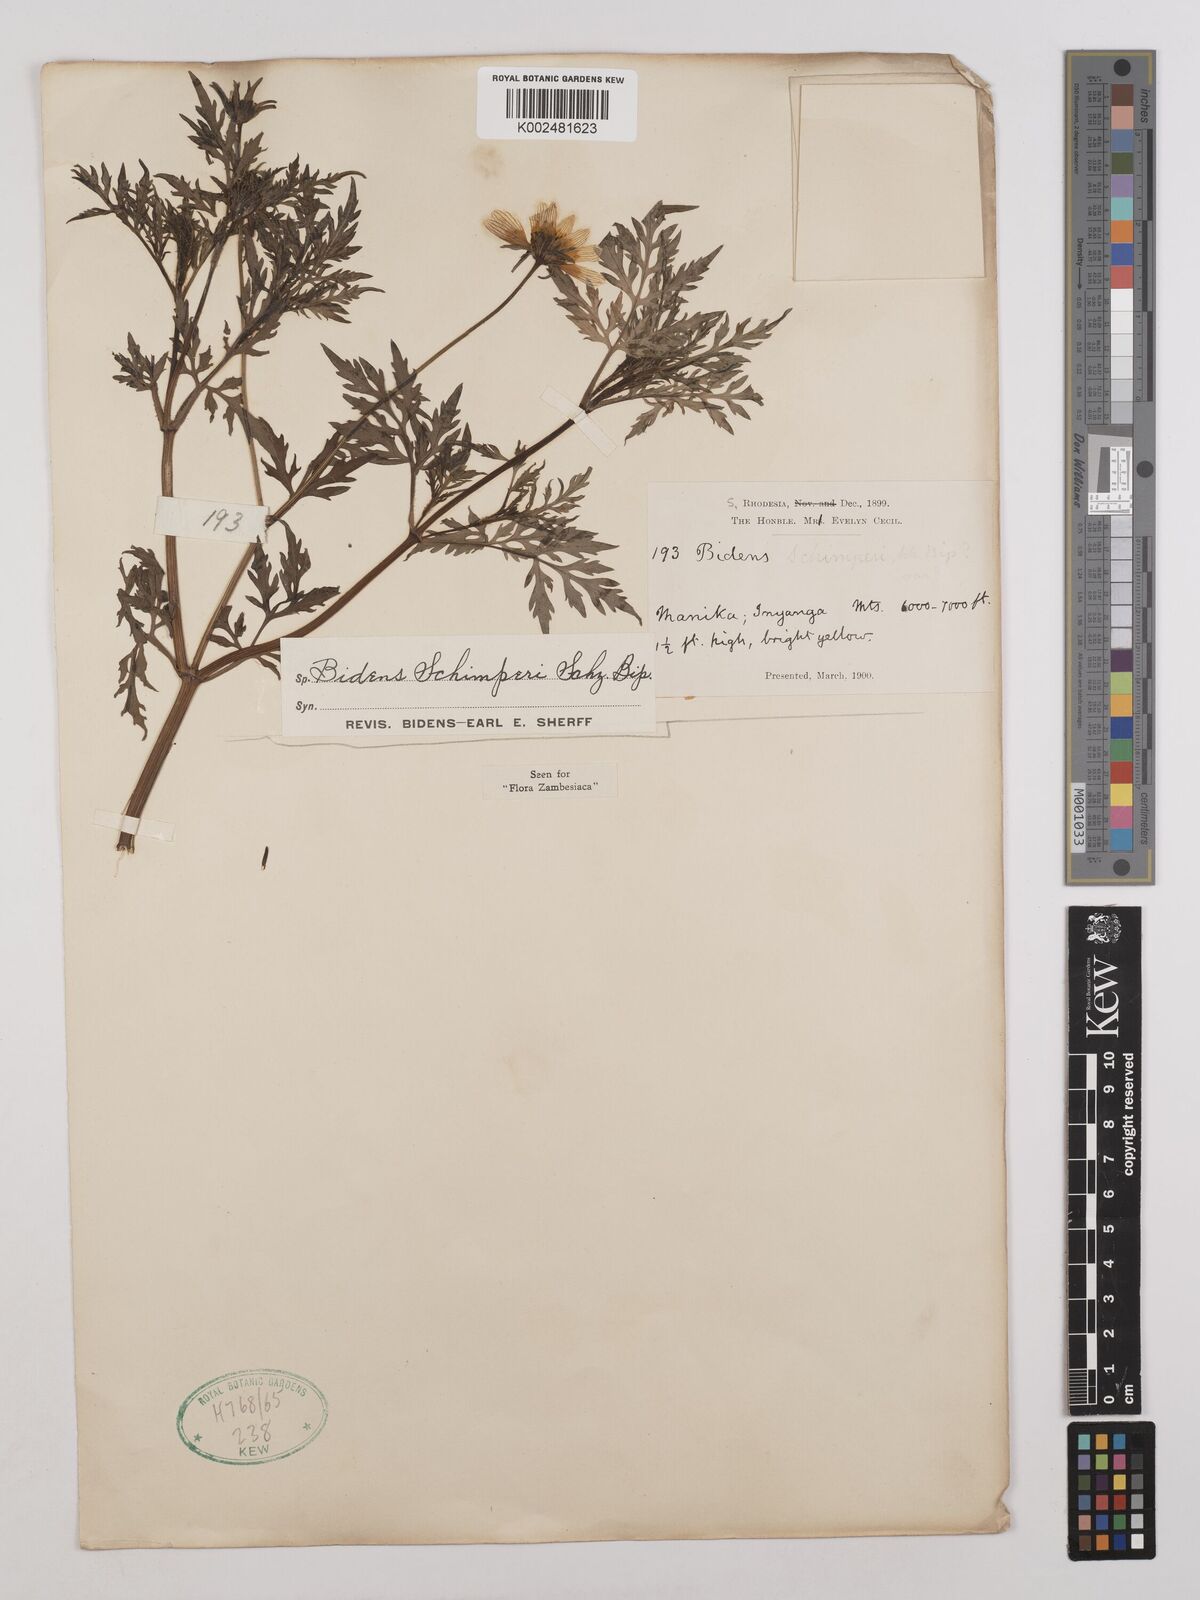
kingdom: Plantae
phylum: Tracheophyta
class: Magnoliopsida
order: Asterales
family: Asteraceae
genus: Bidens
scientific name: Bidens schimperi
